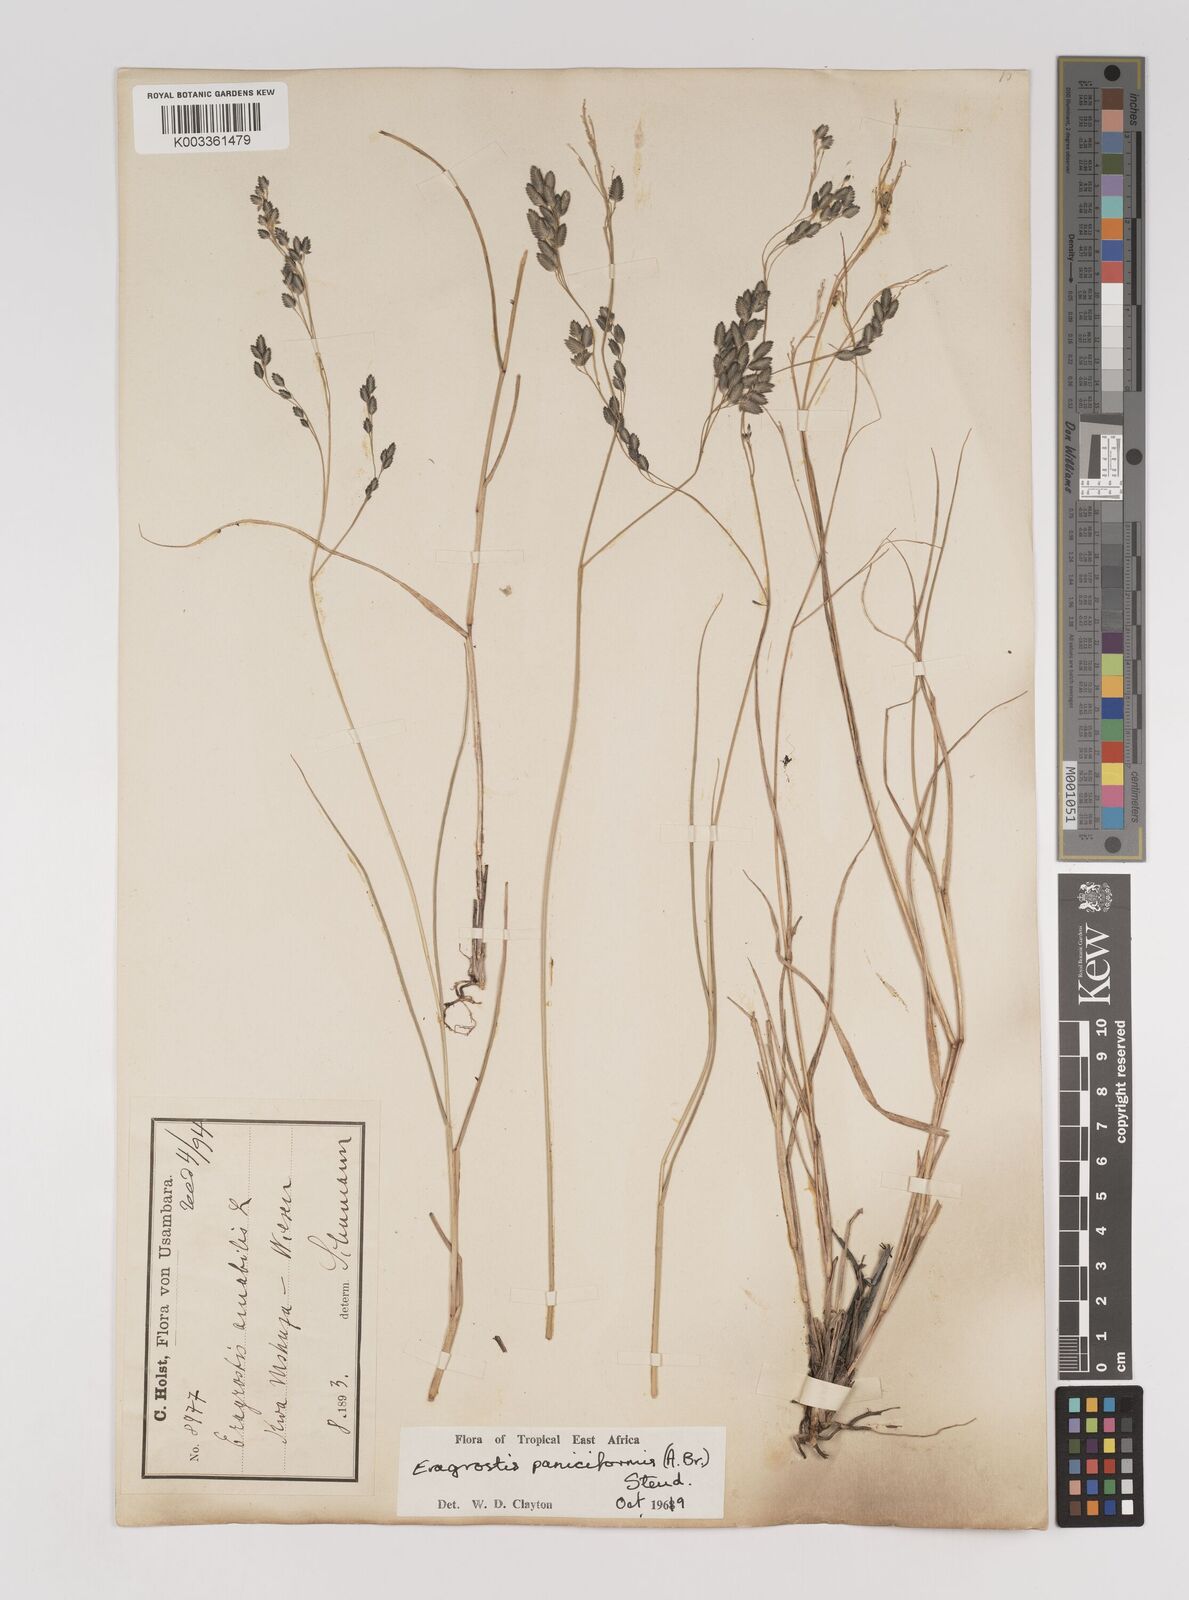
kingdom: Plantae
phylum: Tracheophyta
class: Liliopsida
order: Poales
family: Poaceae
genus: Eragrostis
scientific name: Eragrostis paniciformis
